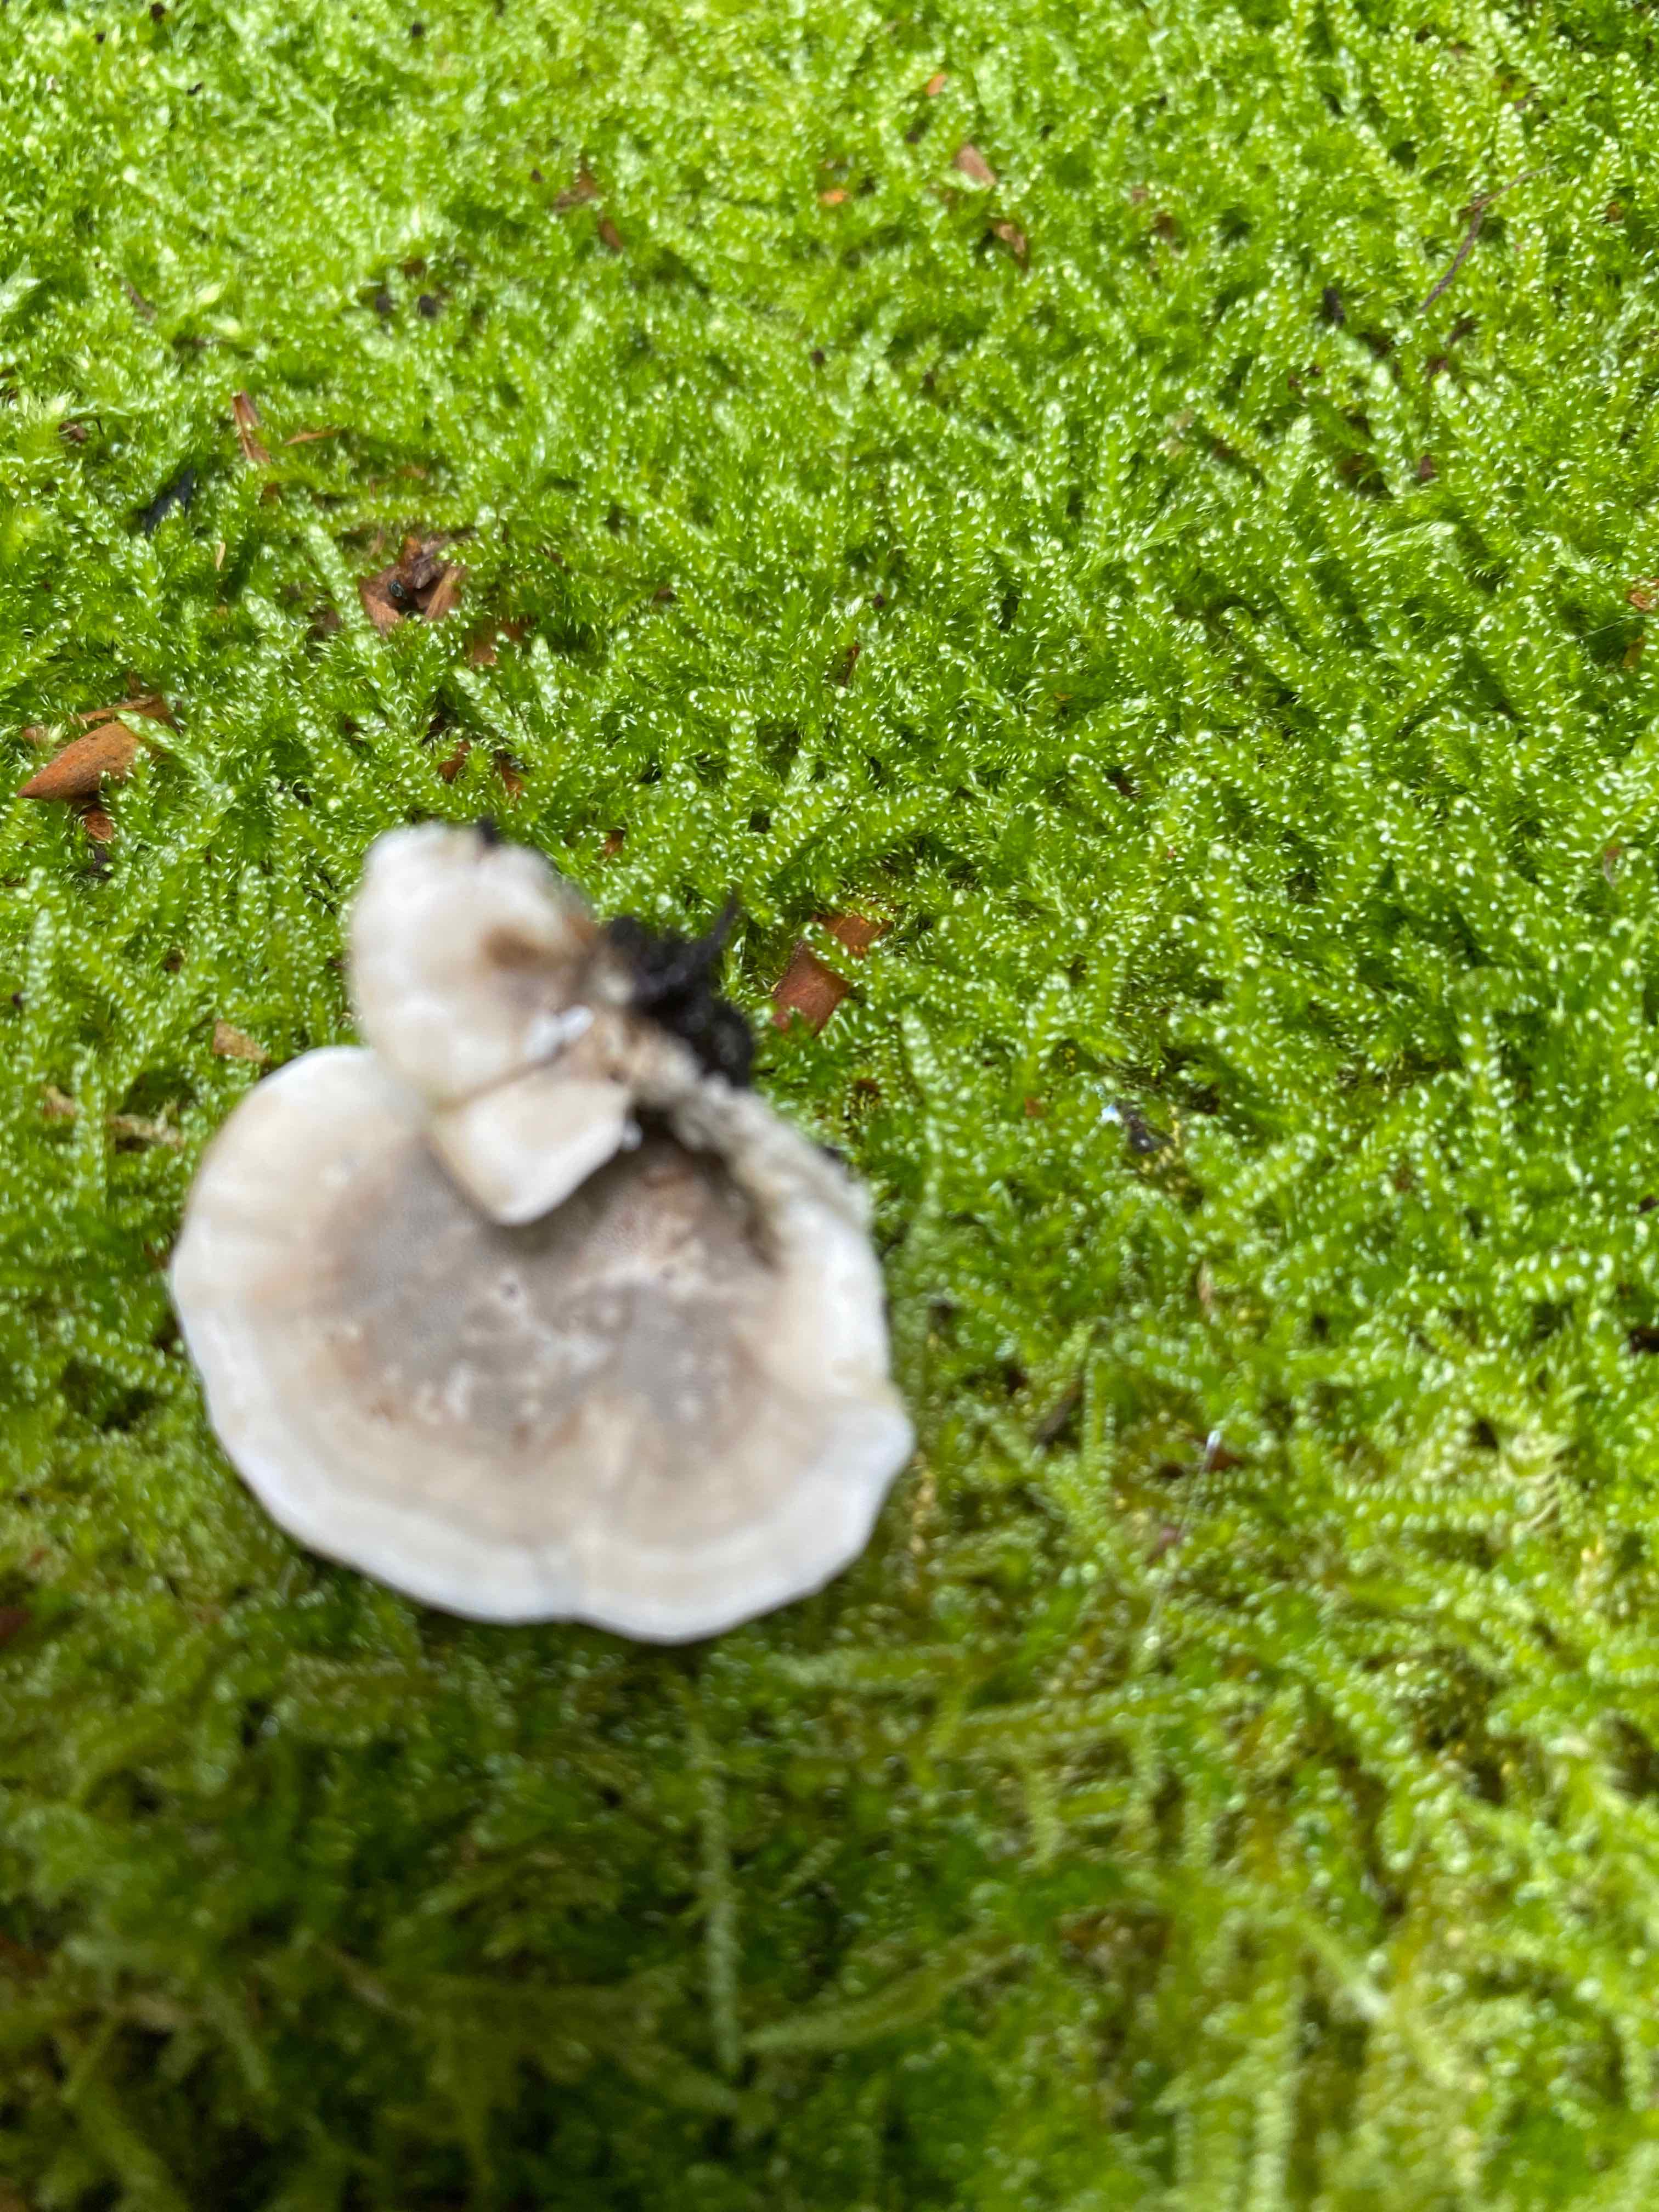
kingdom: Fungi
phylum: Basidiomycota
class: Agaricomycetes
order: Polyporales
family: Phanerochaetaceae
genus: Bjerkandera
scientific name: Bjerkandera adusta
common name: sveden sodporesvamp
